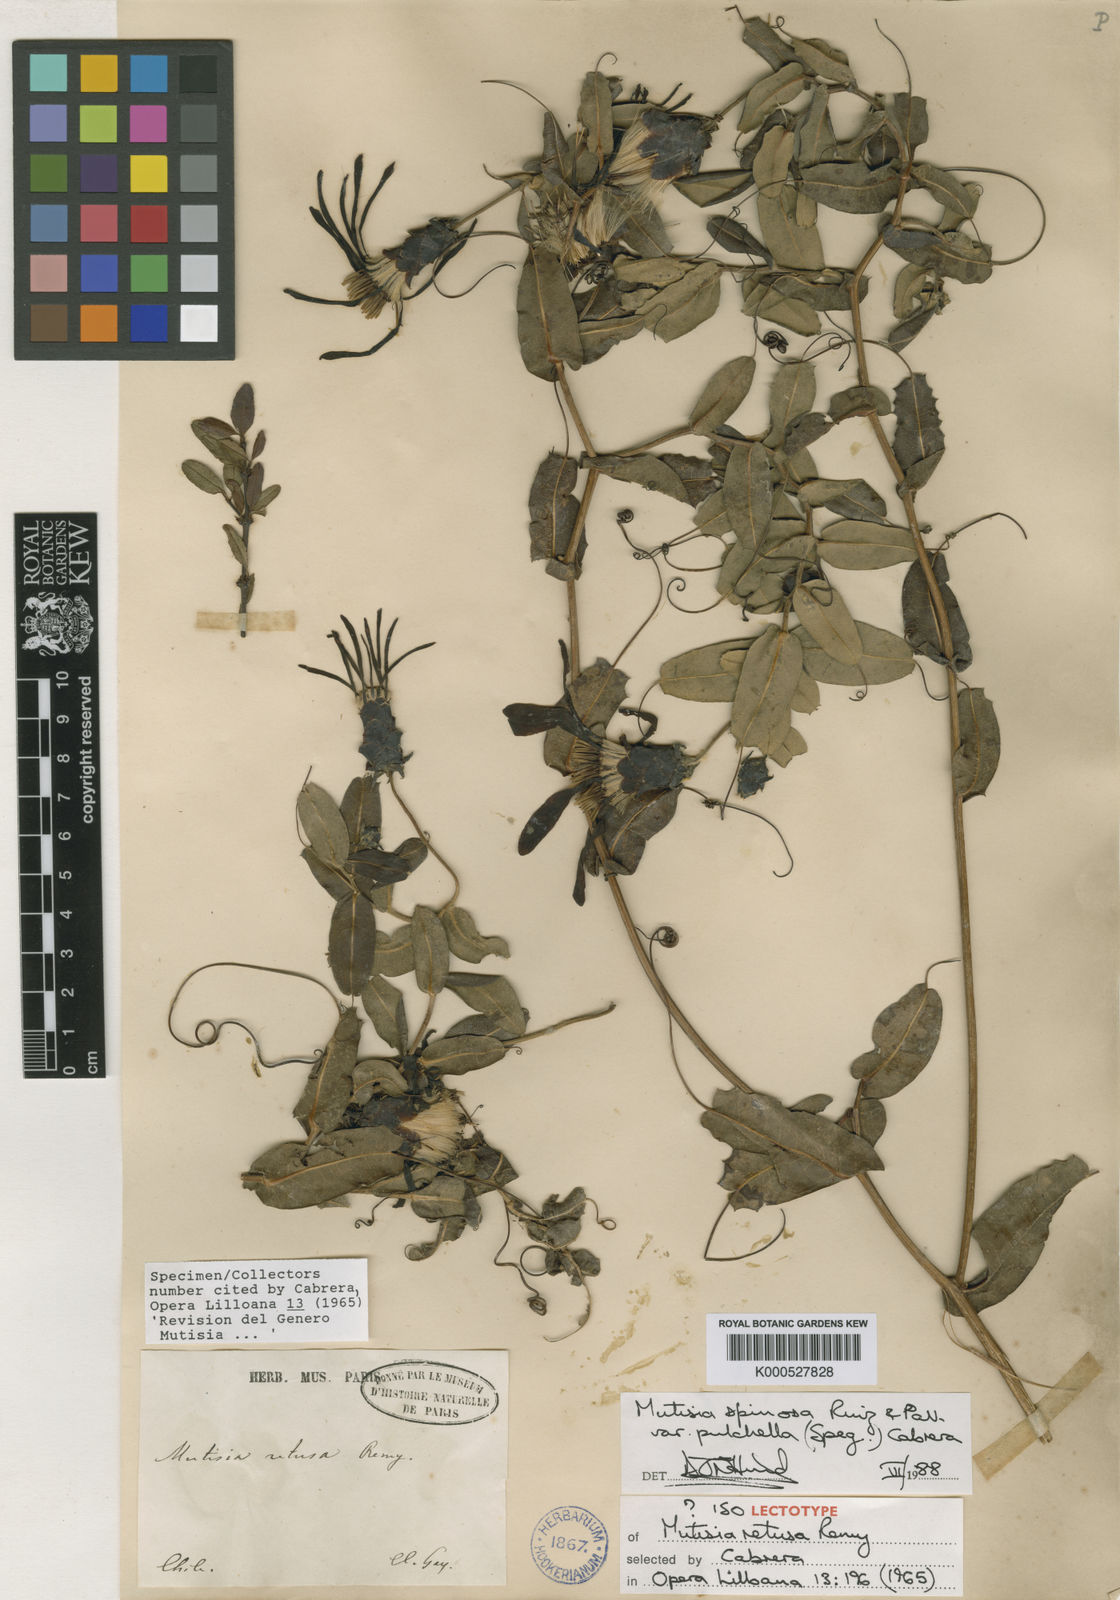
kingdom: Plantae
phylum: Tracheophyta
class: Magnoliopsida
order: Asterales
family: Asteraceae
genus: Mutisia
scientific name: Mutisia spinosa
